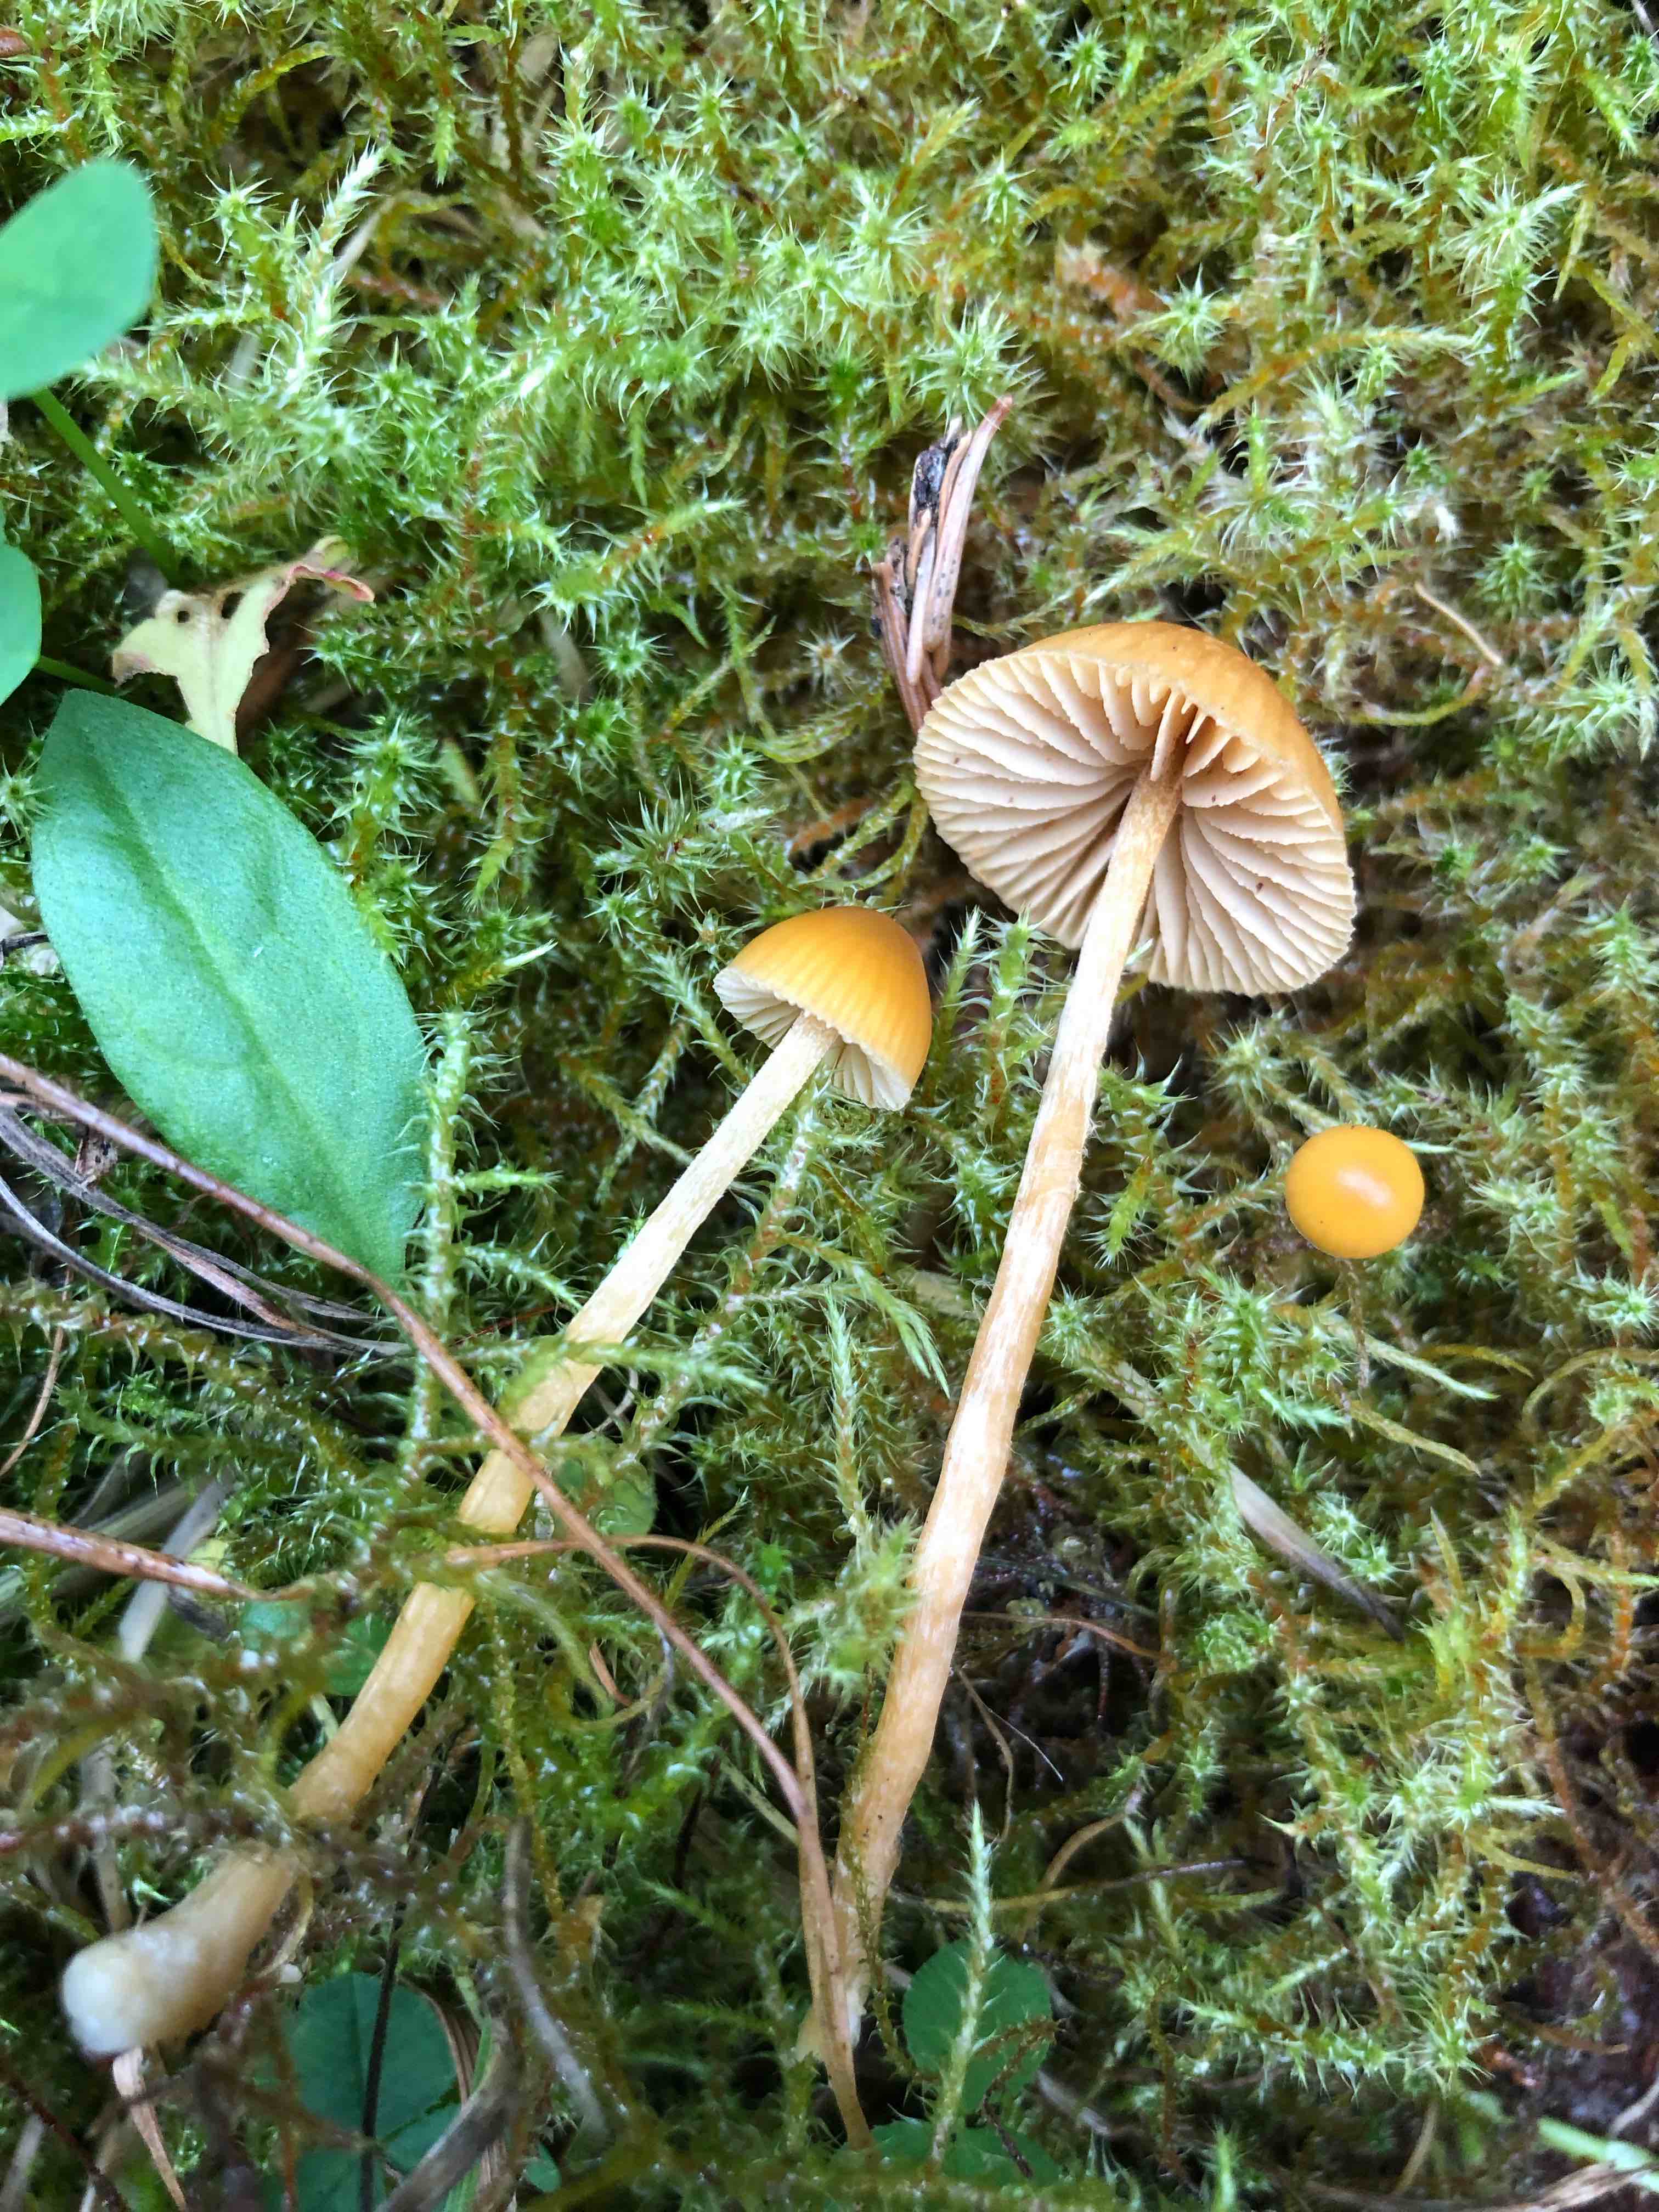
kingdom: Fungi
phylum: Basidiomycota
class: Agaricomycetes
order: Agaricales
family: Hymenogastraceae
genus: Galerina
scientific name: Galerina
